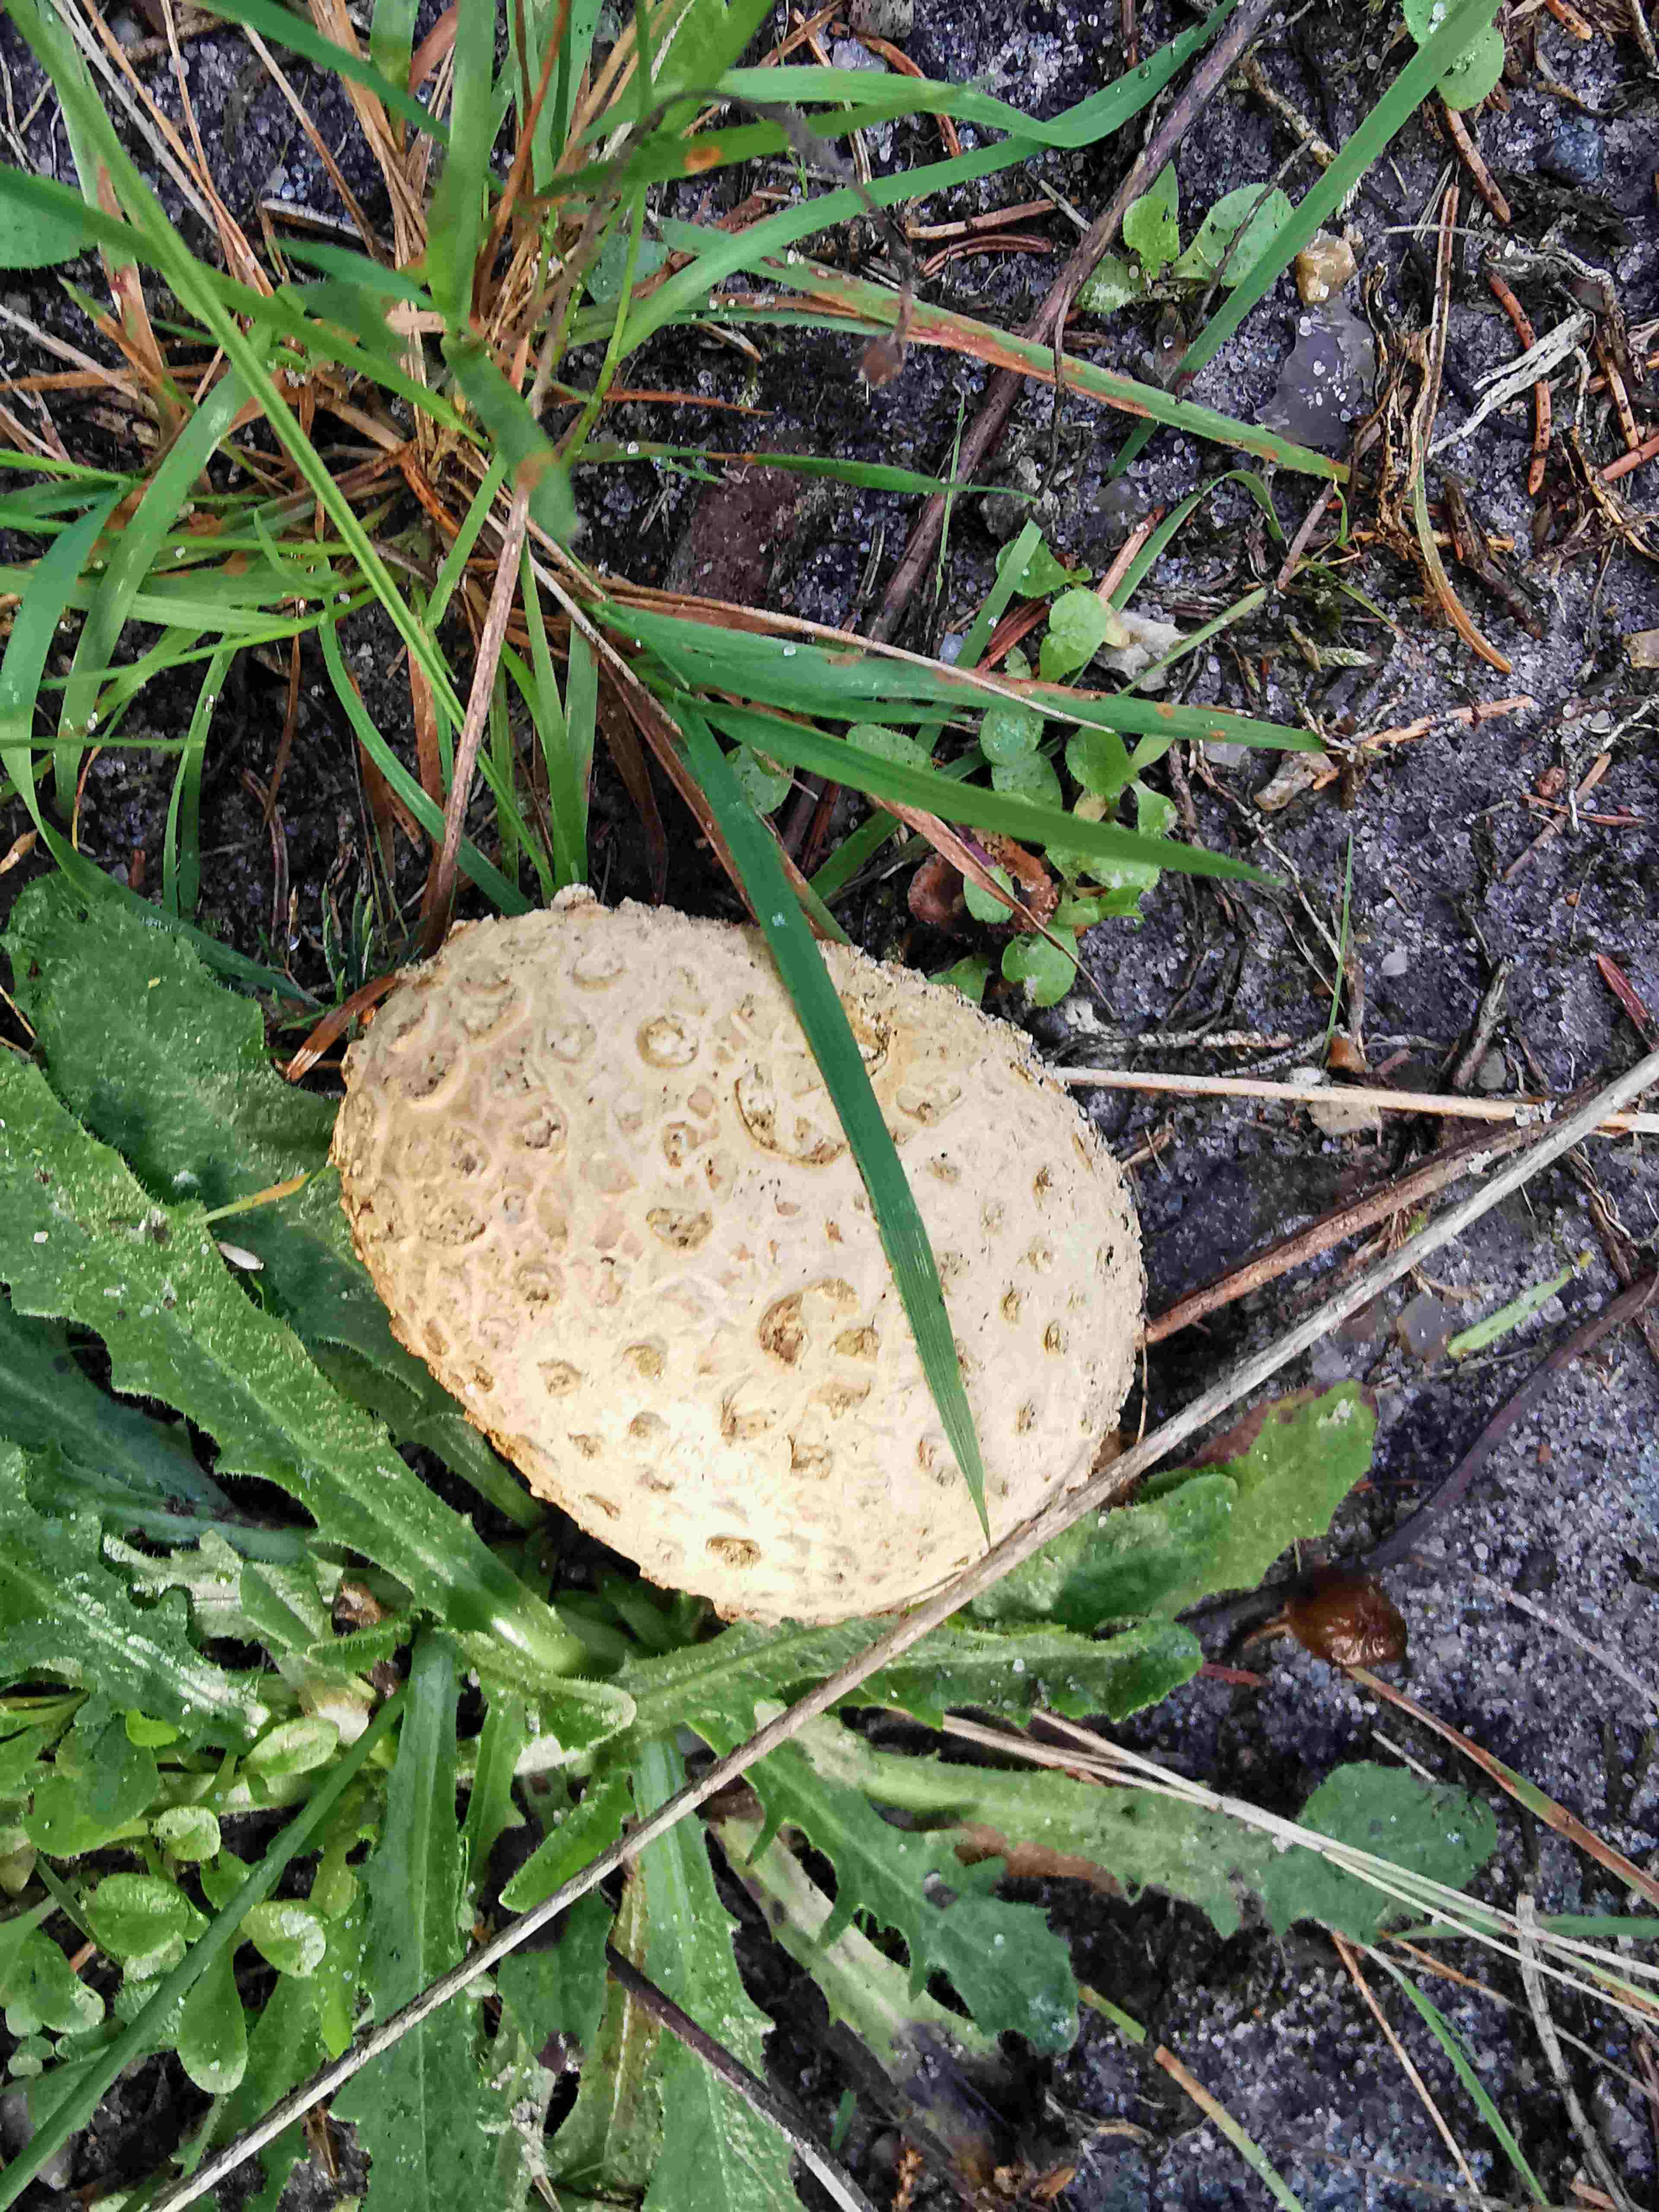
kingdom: Fungi
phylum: Basidiomycota
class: Agaricomycetes
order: Boletales
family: Sclerodermataceae
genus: Scleroderma
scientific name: Scleroderma citrinum
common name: almindelig bruskbold
